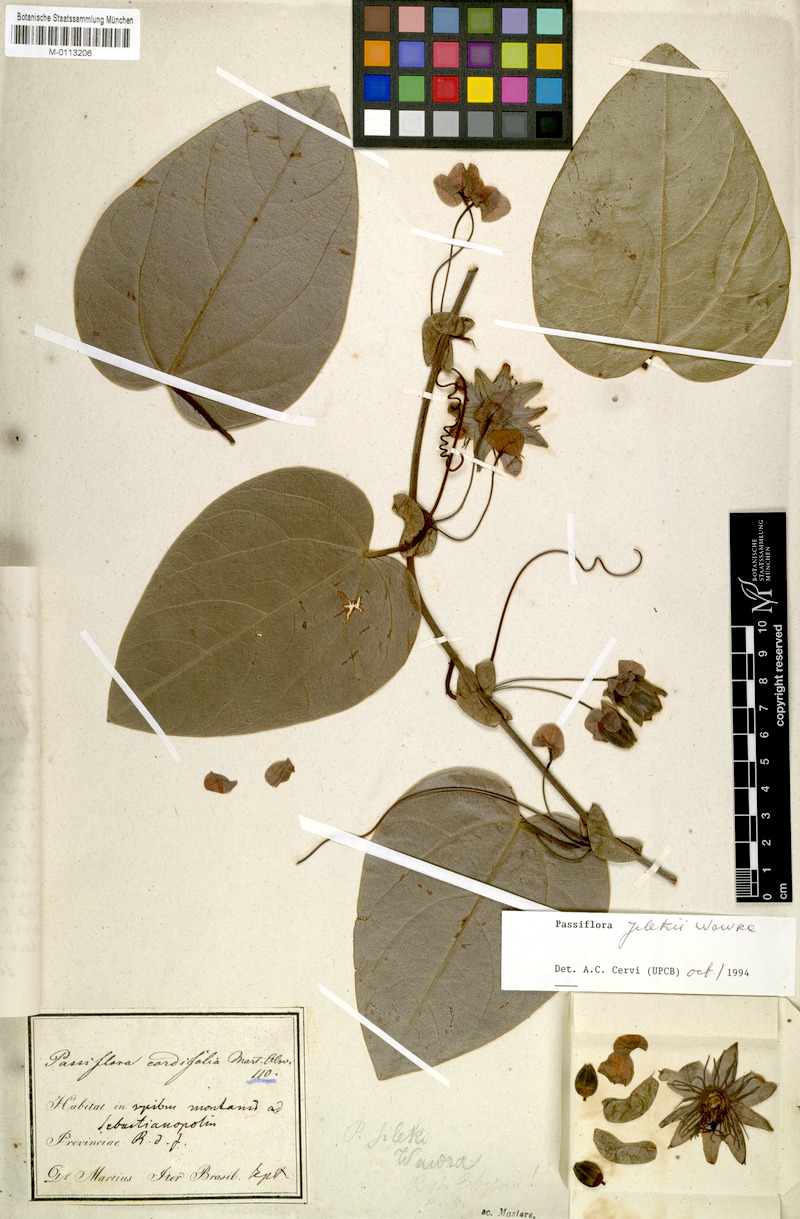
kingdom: Plantae
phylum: Tracheophyta
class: Magnoliopsida
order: Malpighiales
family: Passifloraceae
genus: Passiflora
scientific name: Passiflora mediterranea
